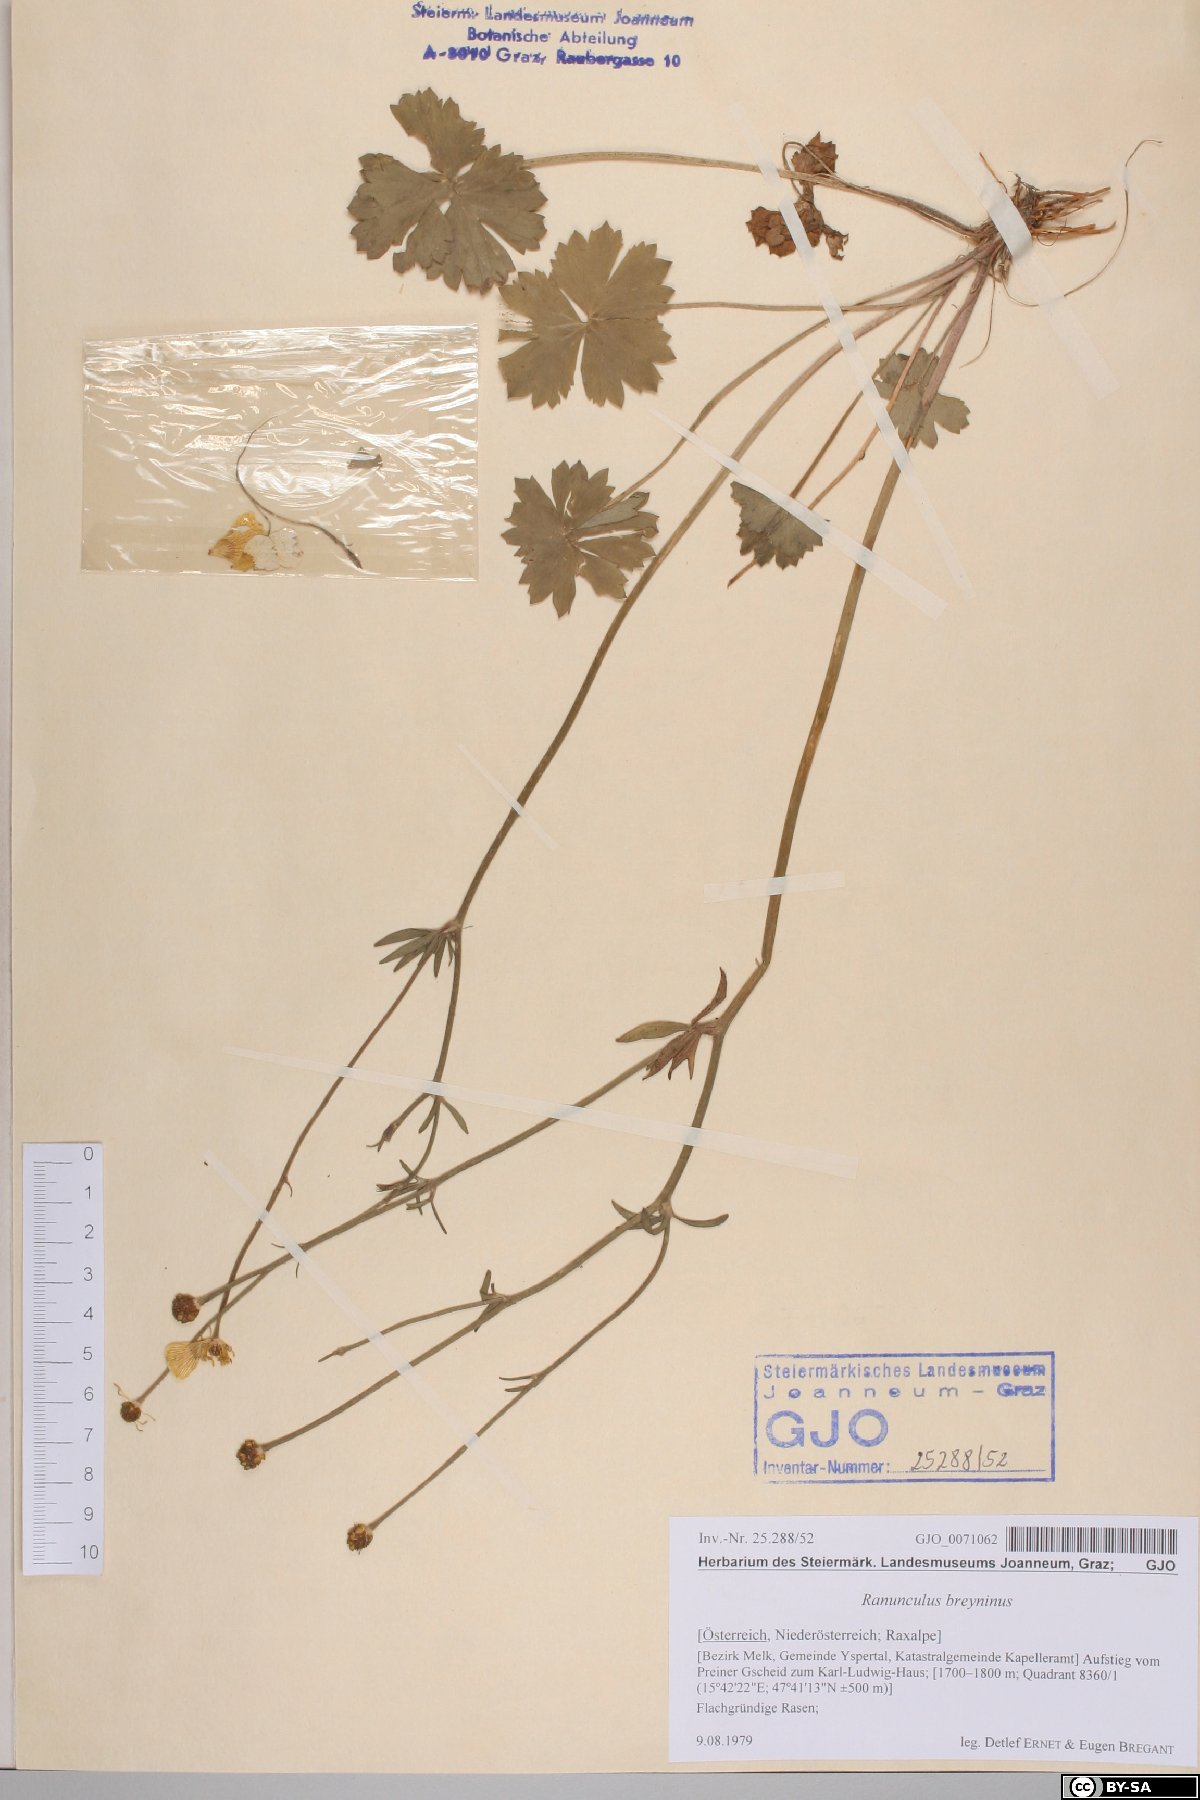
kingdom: Plantae
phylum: Tracheophyta
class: Magnoliopsida
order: Ranunculales
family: Ranunculaceae
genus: Ranunculus
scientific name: Ranunculus breyninus
